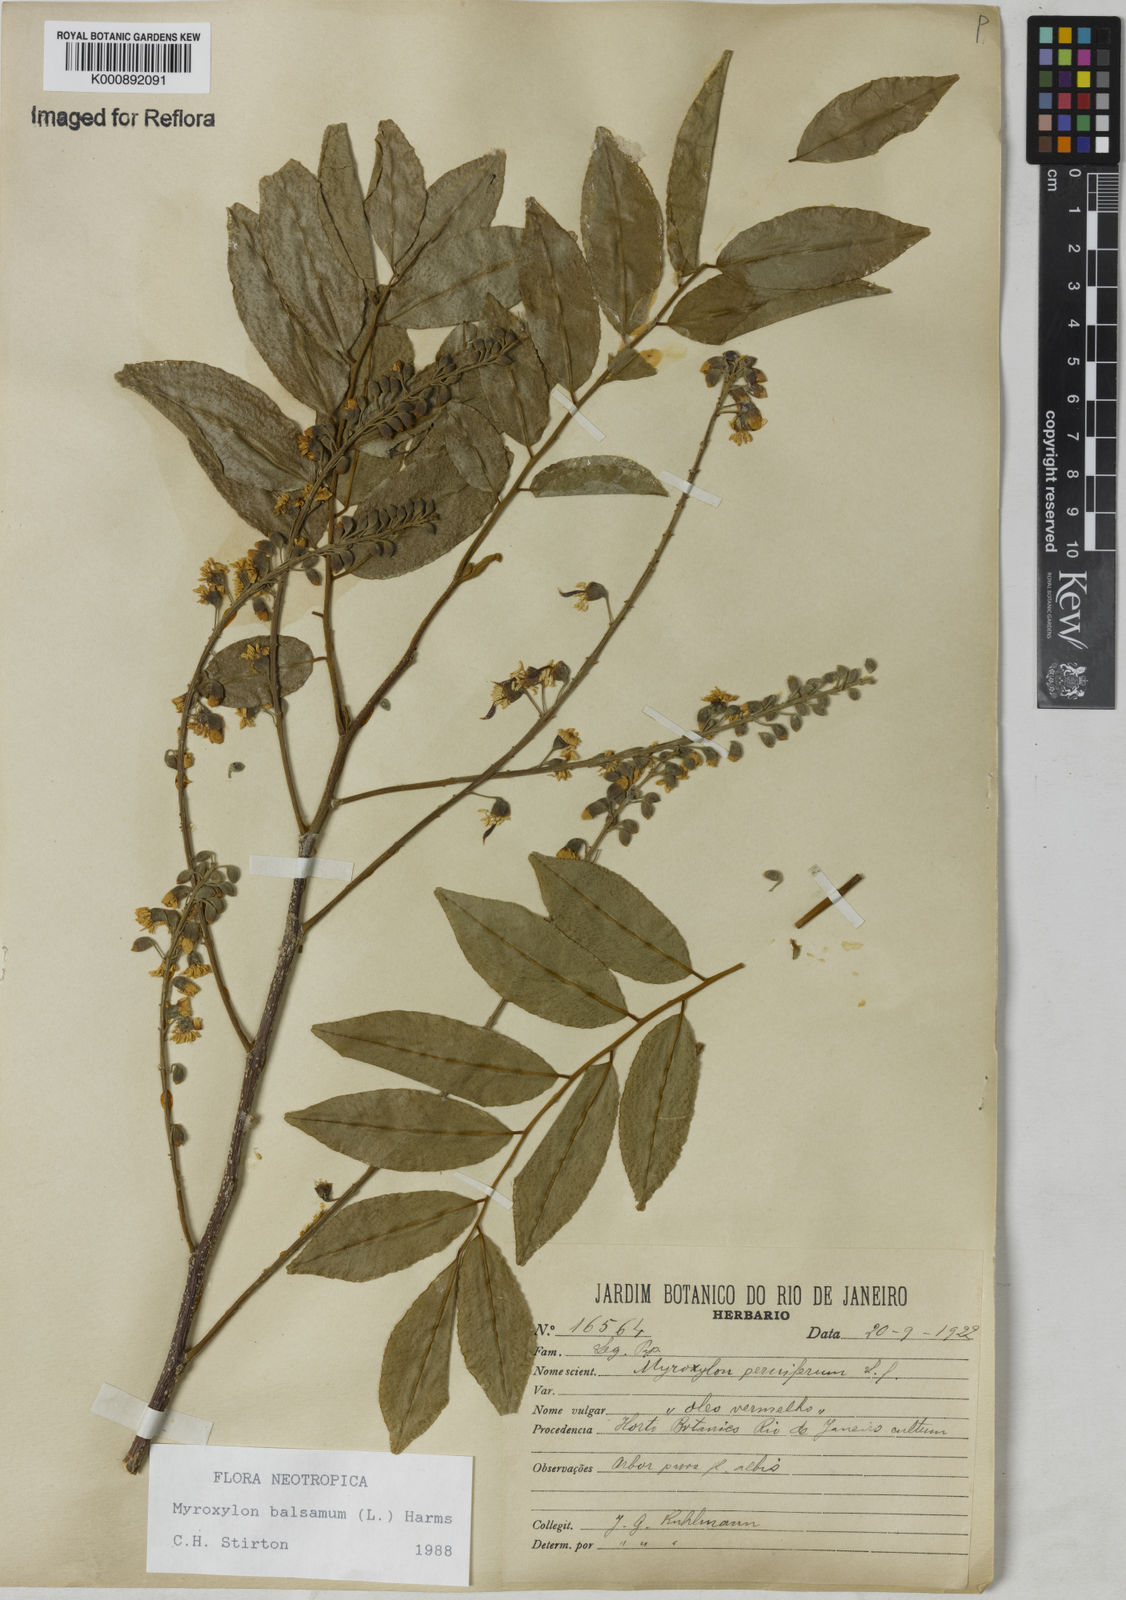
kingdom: Plantae
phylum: Tracheophyta
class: Magnoliopsida
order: Fabales
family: Fabaceae
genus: Myroxylon
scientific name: Myroxylon balsamum
